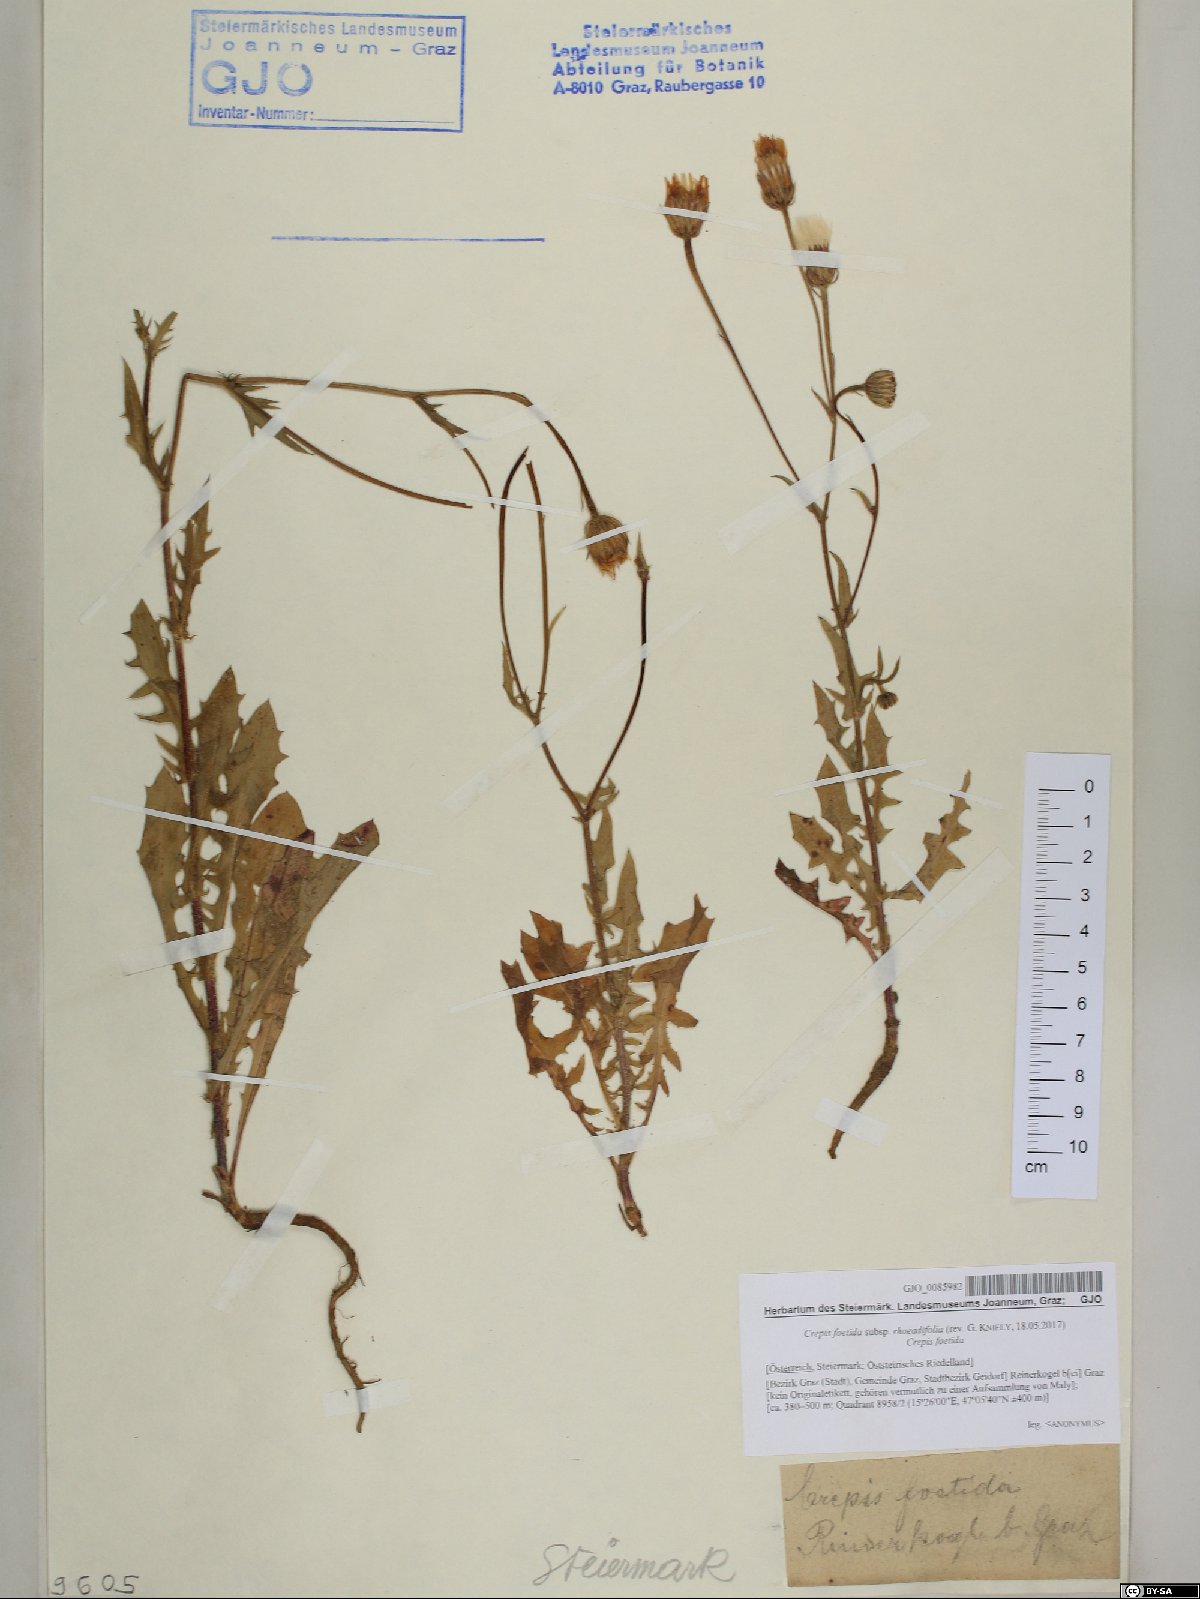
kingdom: Plantae
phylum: Tracheophyta
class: Magnoliopsida
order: Asterales
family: Asteraceae
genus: Crepis
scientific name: Crepis foetida
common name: Stinking hawk's-beard
